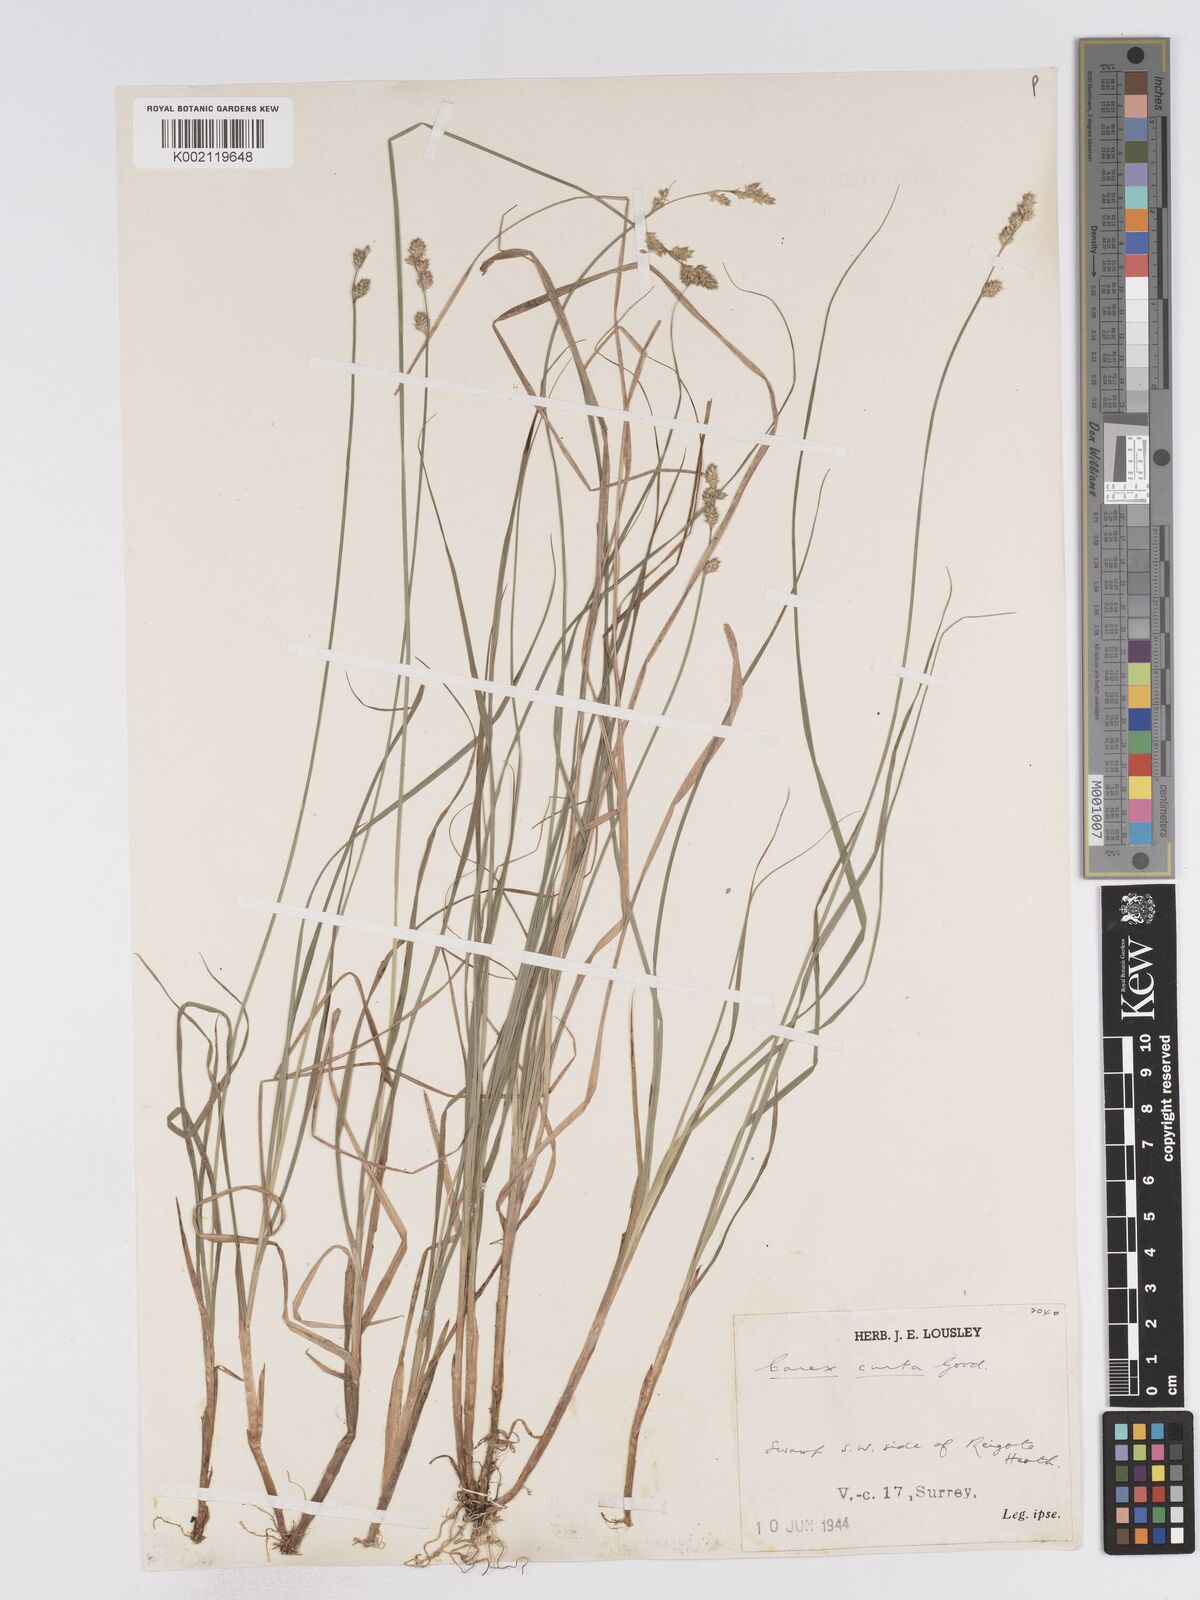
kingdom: Plantae
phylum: Tracheophyta
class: Liliopsida
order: Poales
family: Cyperaceae
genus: Carex
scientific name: Carex curta
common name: White sedge
